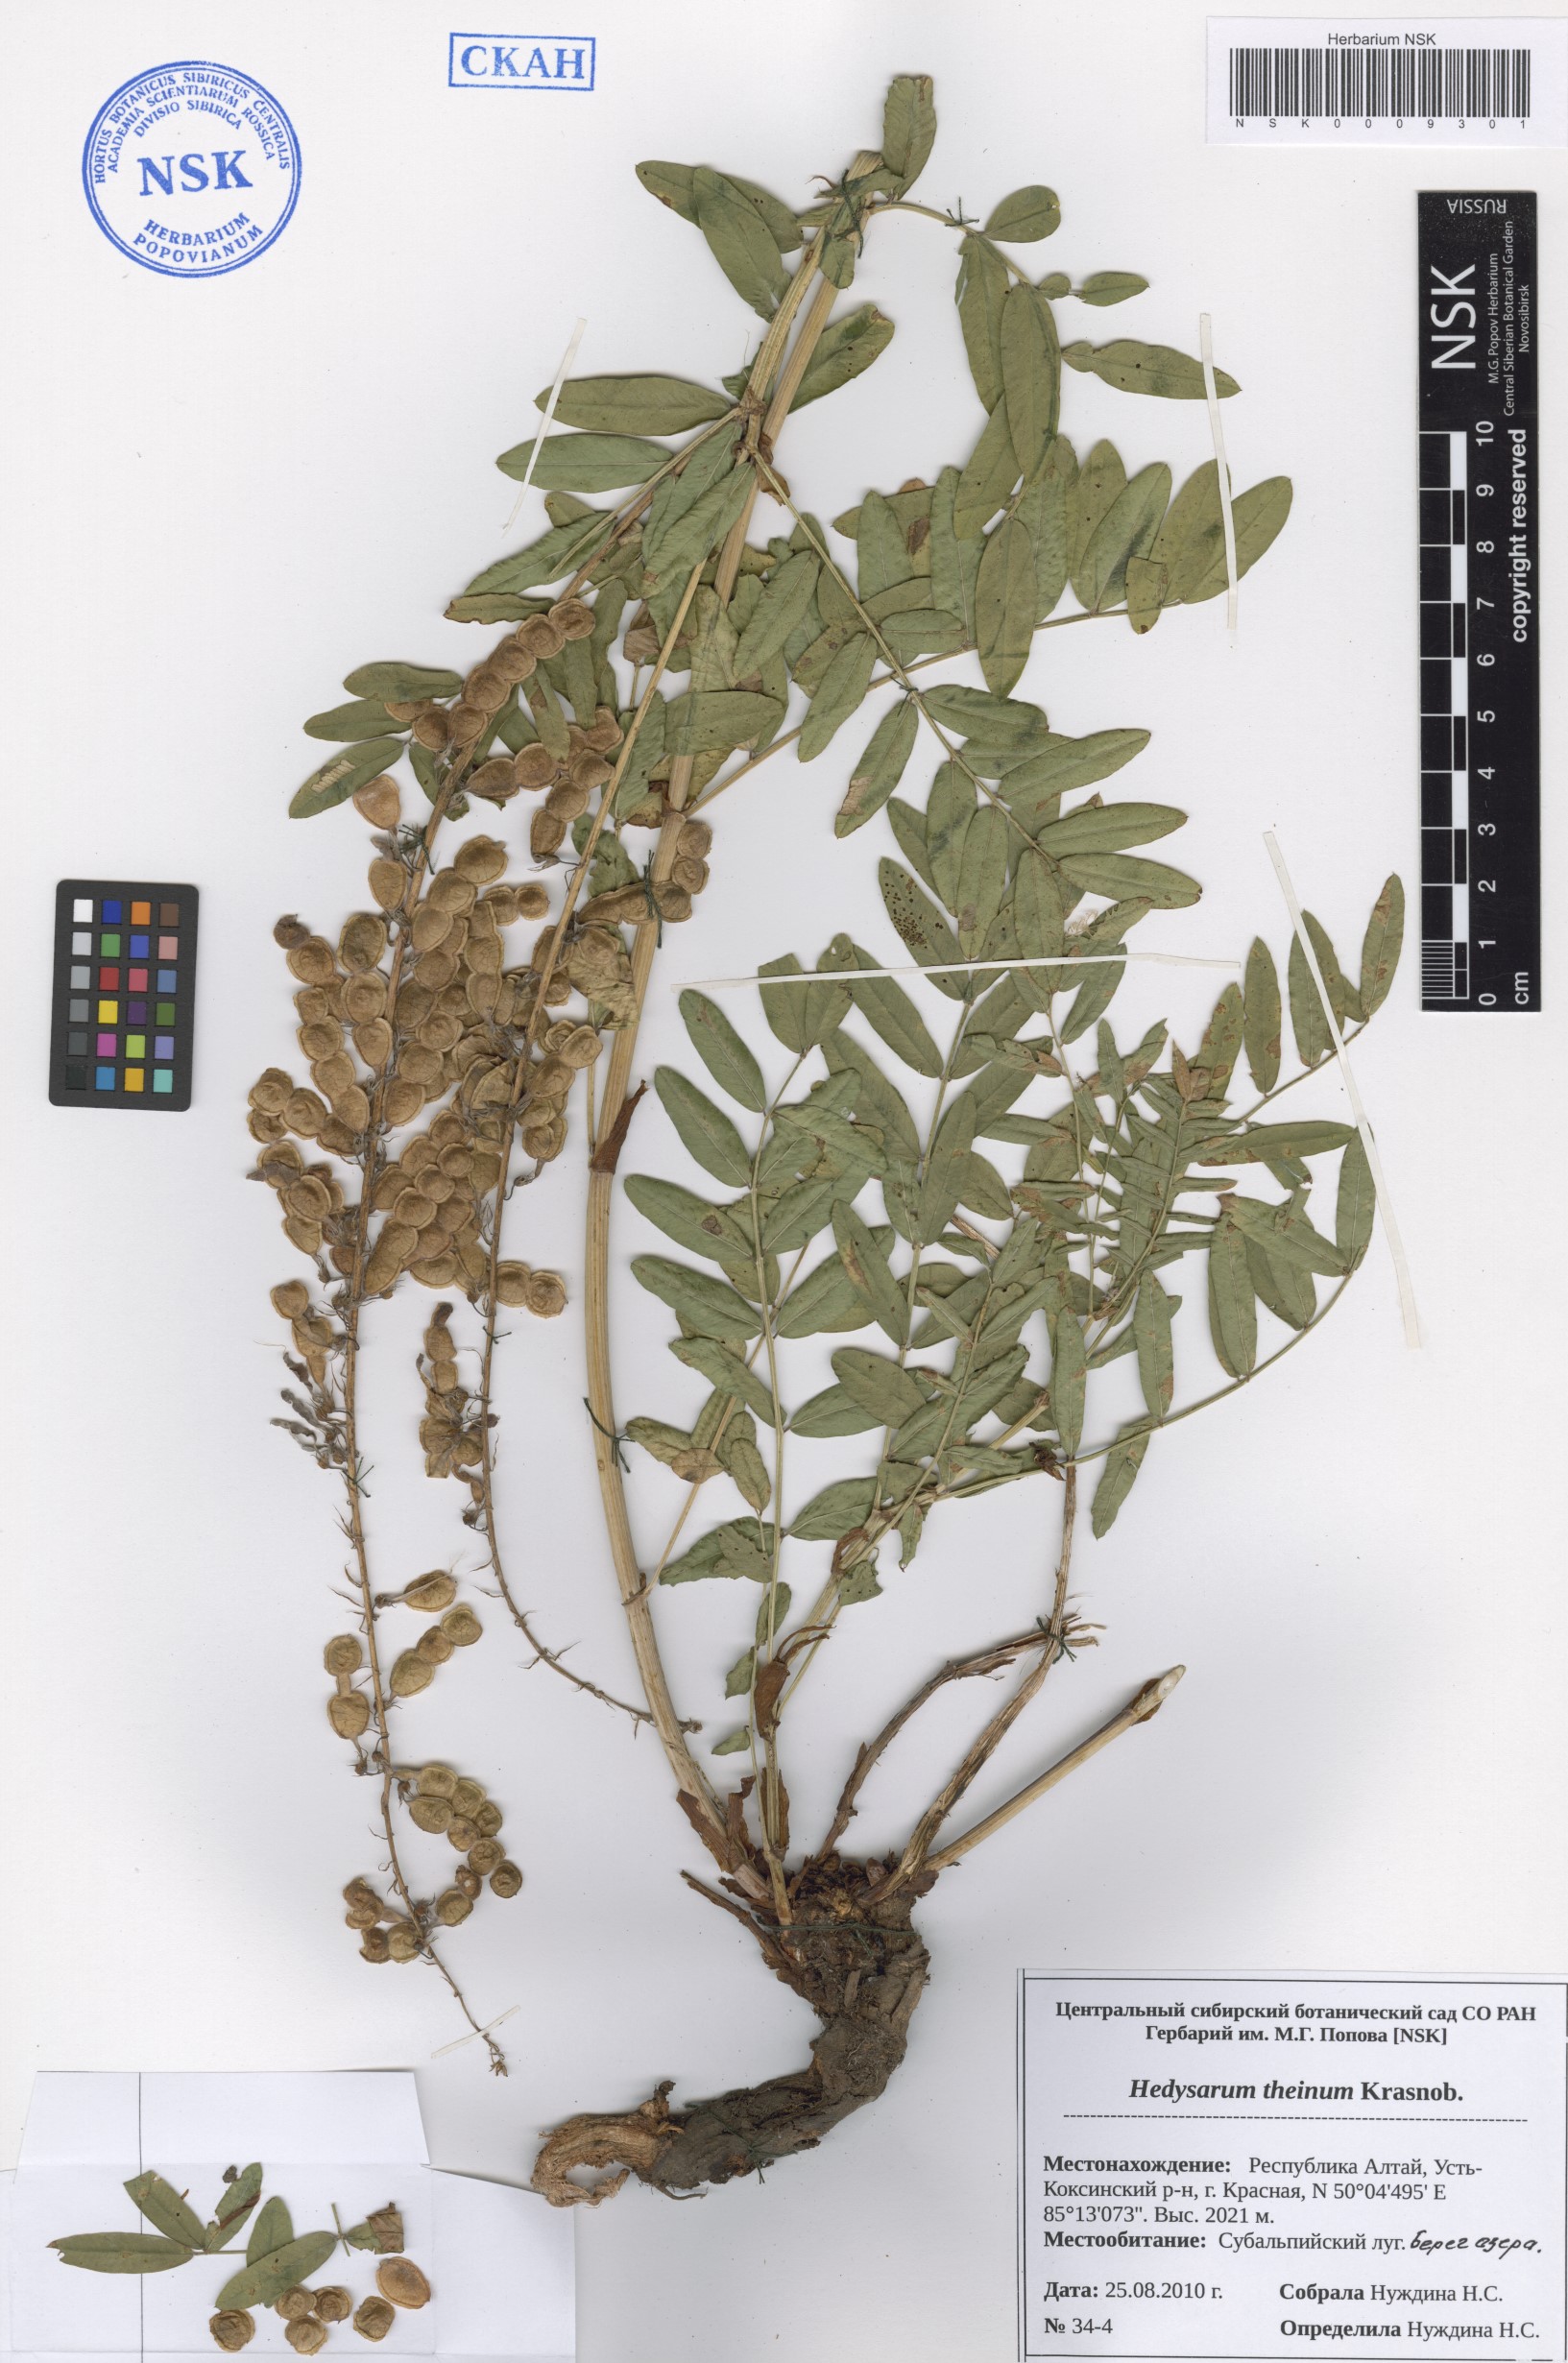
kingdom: Plantae
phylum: Tracheophyta
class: Magnoliopsida
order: Fabales
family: Fabaceae
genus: Hedysarum
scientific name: Hedysarum theinum
